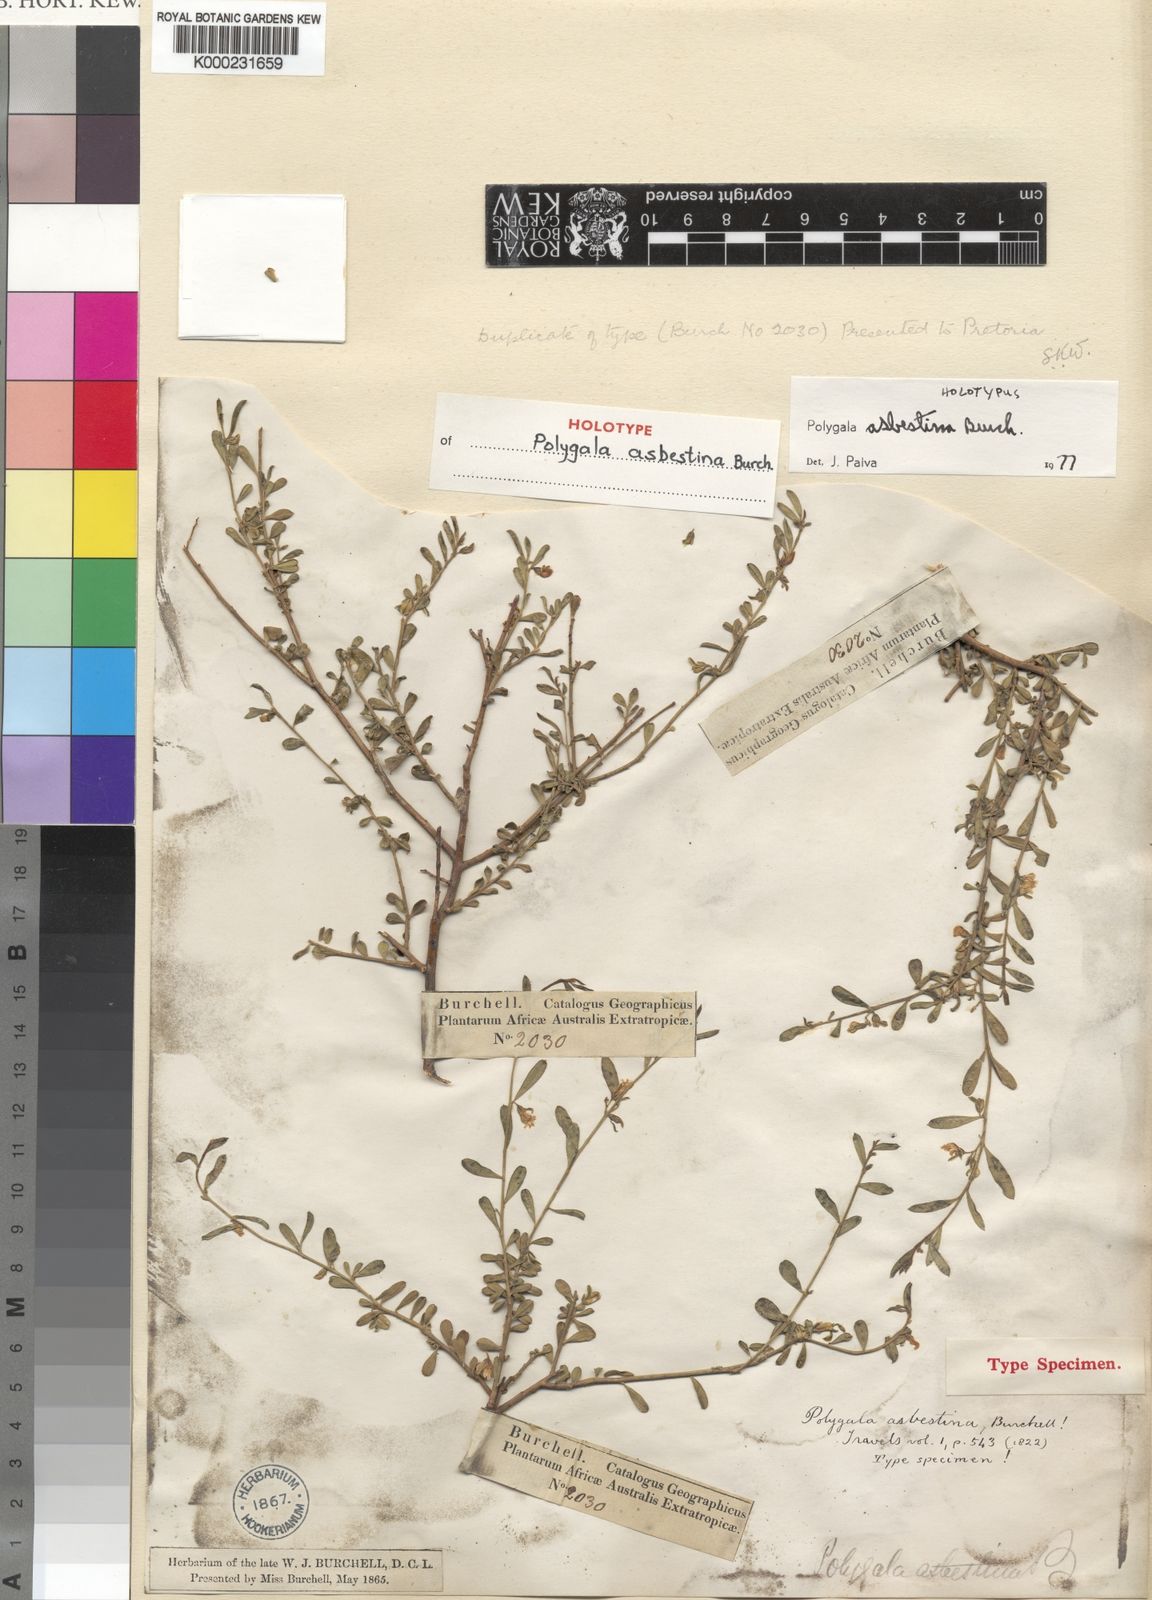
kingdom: Plantae
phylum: Tracheophyta
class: Magnoliopsida
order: Fabales
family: Polygalaceae
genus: Polygala
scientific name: Polygala asbestina
